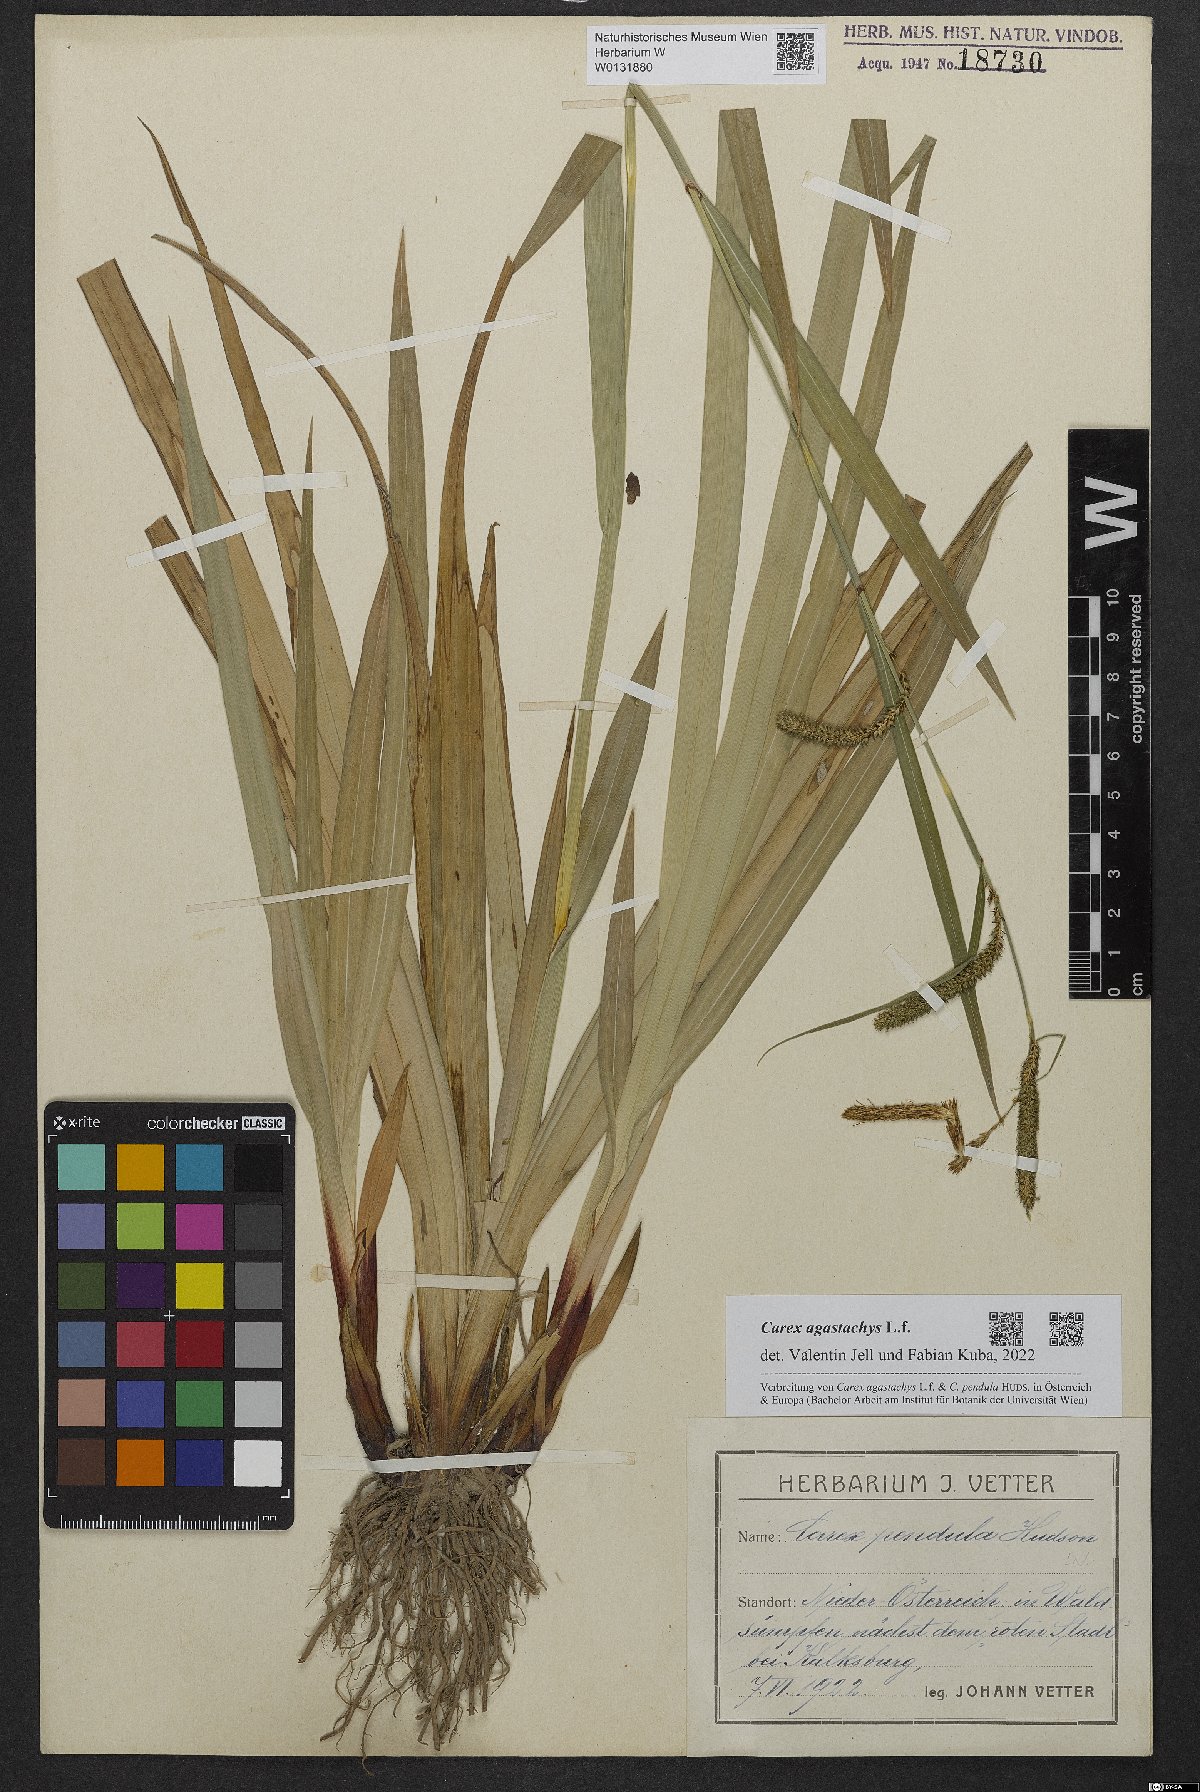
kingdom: Plantae
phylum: Tracheophyta
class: Liliopsida
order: Poales
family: Cyperaceae
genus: Carex
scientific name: Carex agastachys
